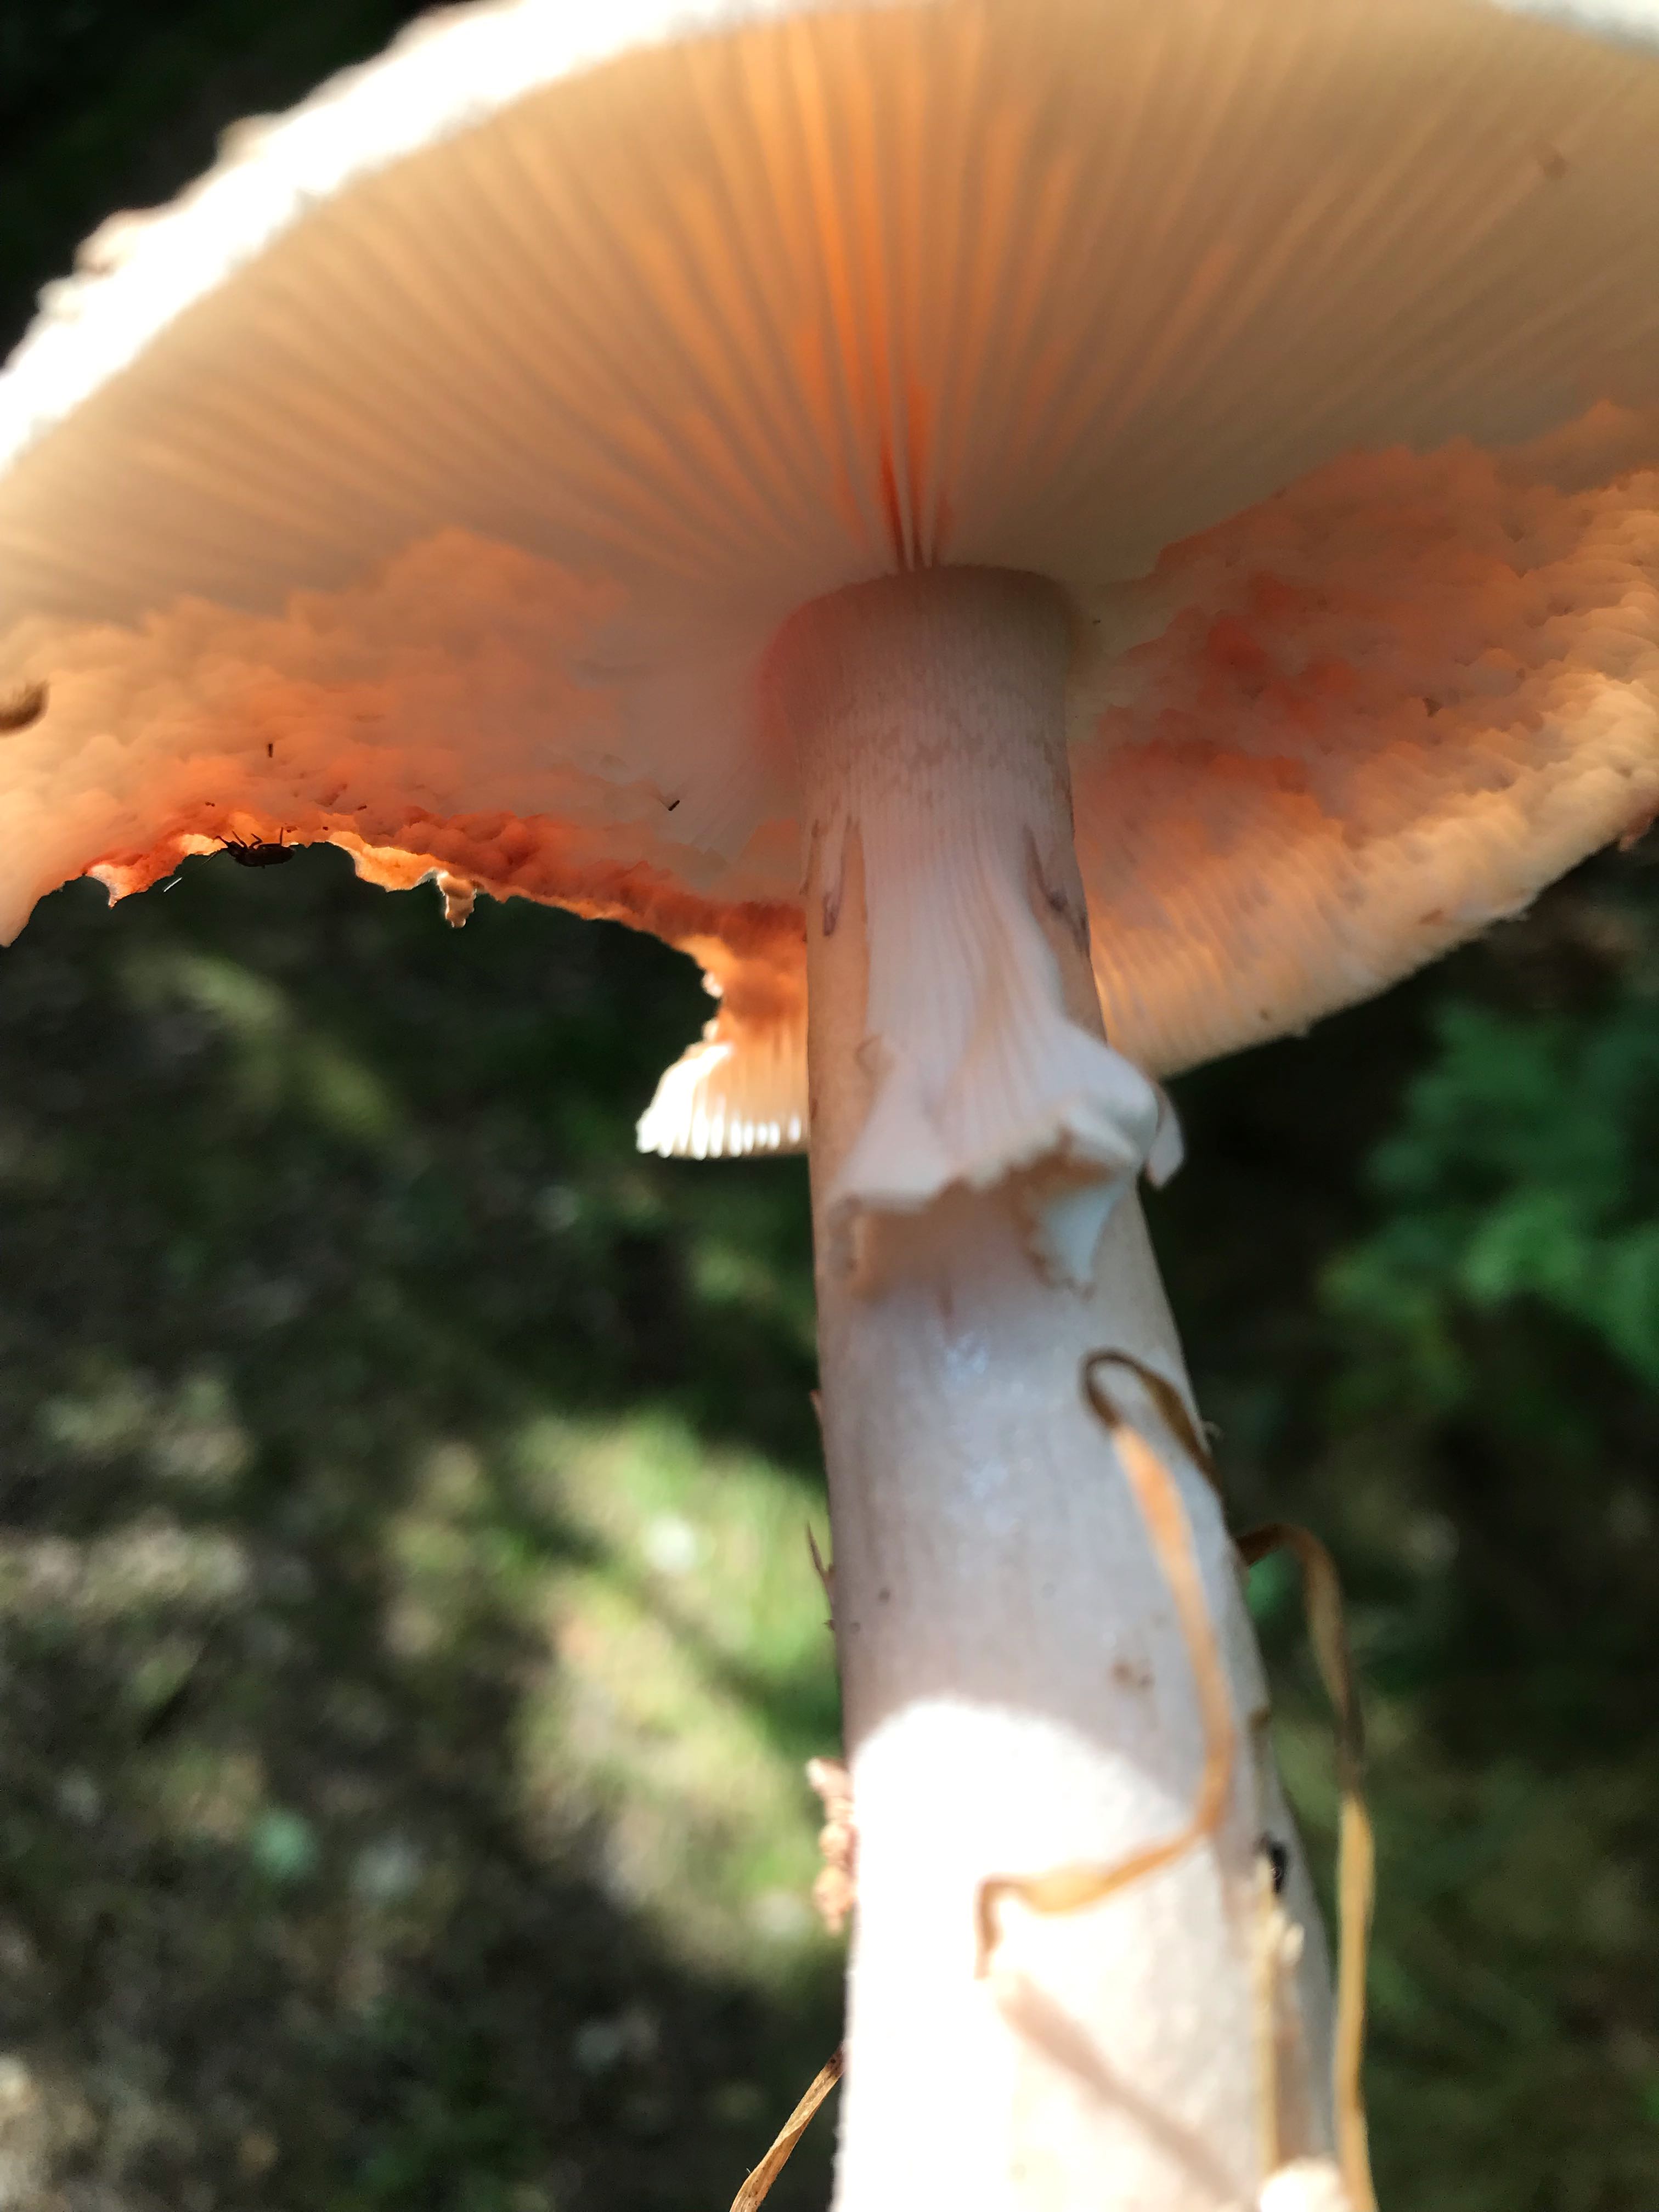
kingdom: Fungi
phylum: Basidiomycota
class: Agaricomycetes
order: Agaricales
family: Amanitaceae
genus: Amanita
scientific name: Amanita rubescens
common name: rødmende fluesvamp
